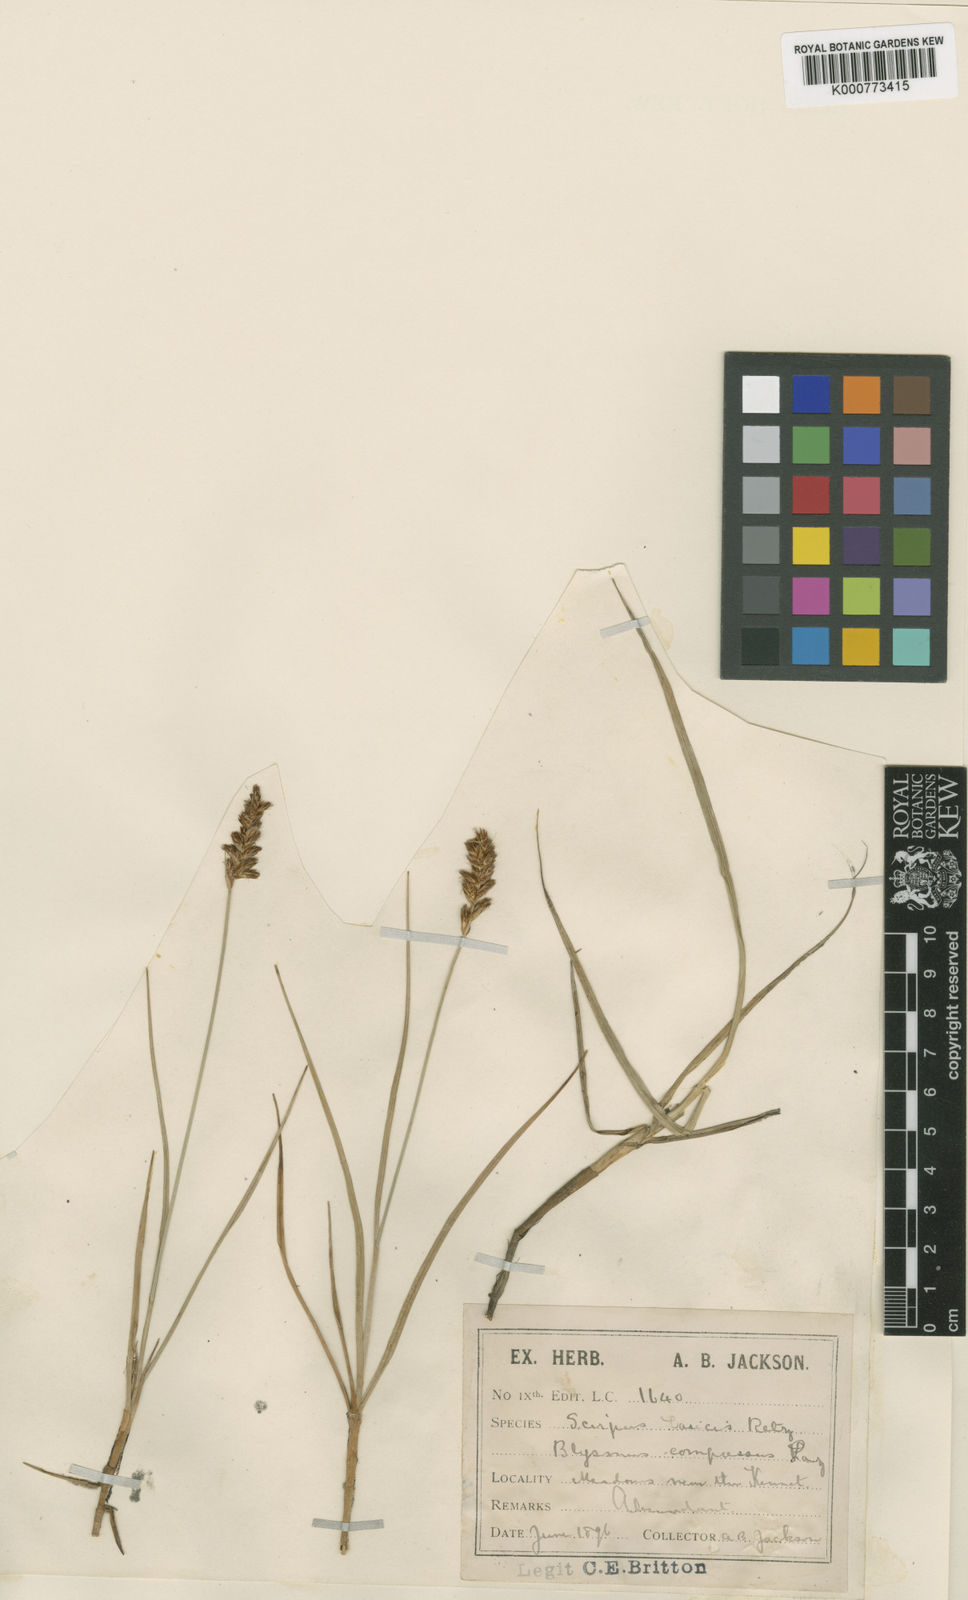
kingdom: Plantae
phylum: Tracheophyta
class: Liliopsida
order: Poales
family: Cyperaceae
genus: Blysmus
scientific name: Blysmus compressus
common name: Flat-sedge
